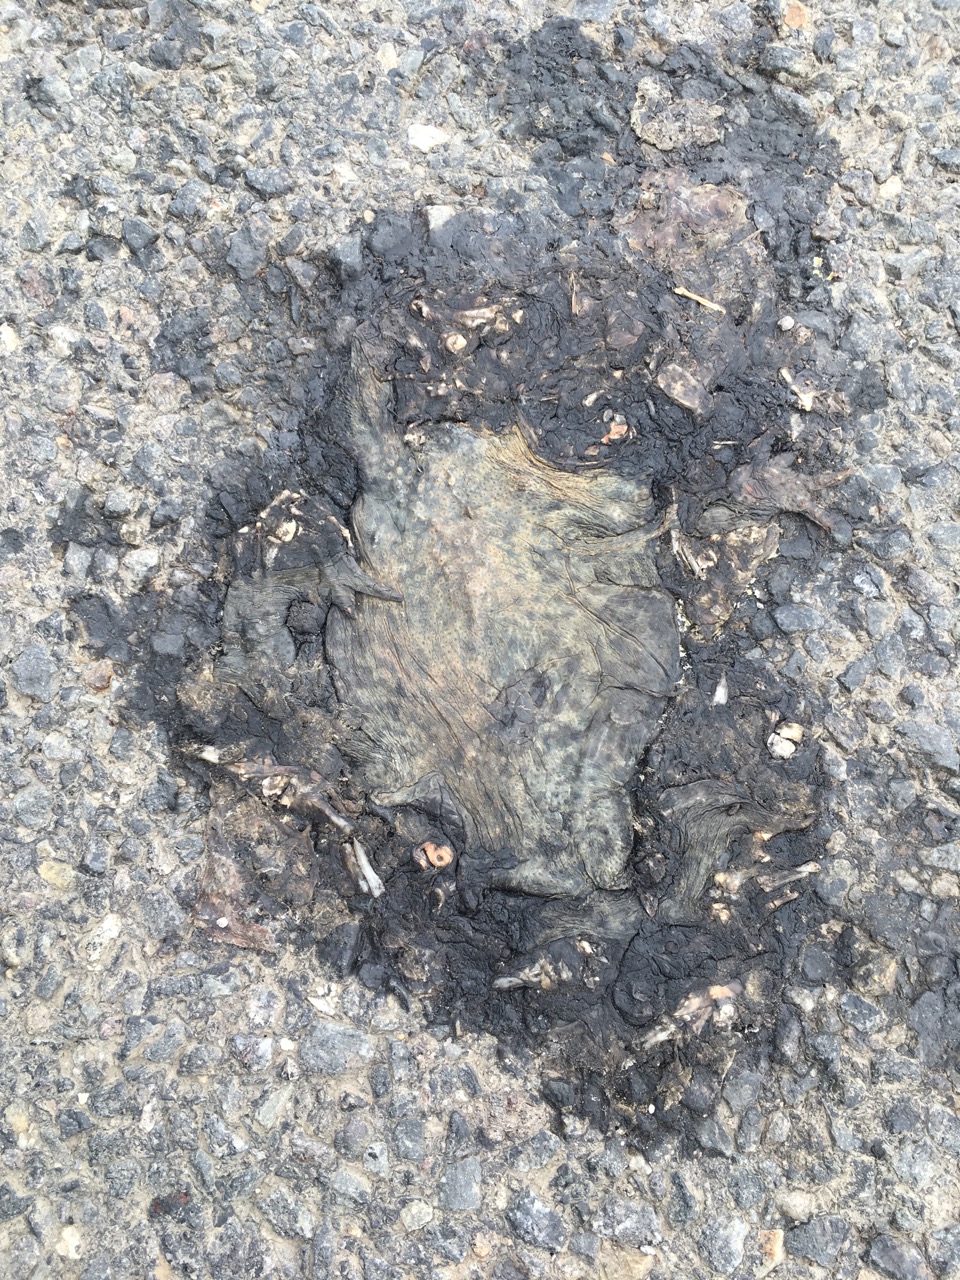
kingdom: Animalia
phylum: Chordata
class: Amphibia
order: Anura
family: Bufonidae
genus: Bufo
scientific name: Bufo bufo
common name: Common toad
